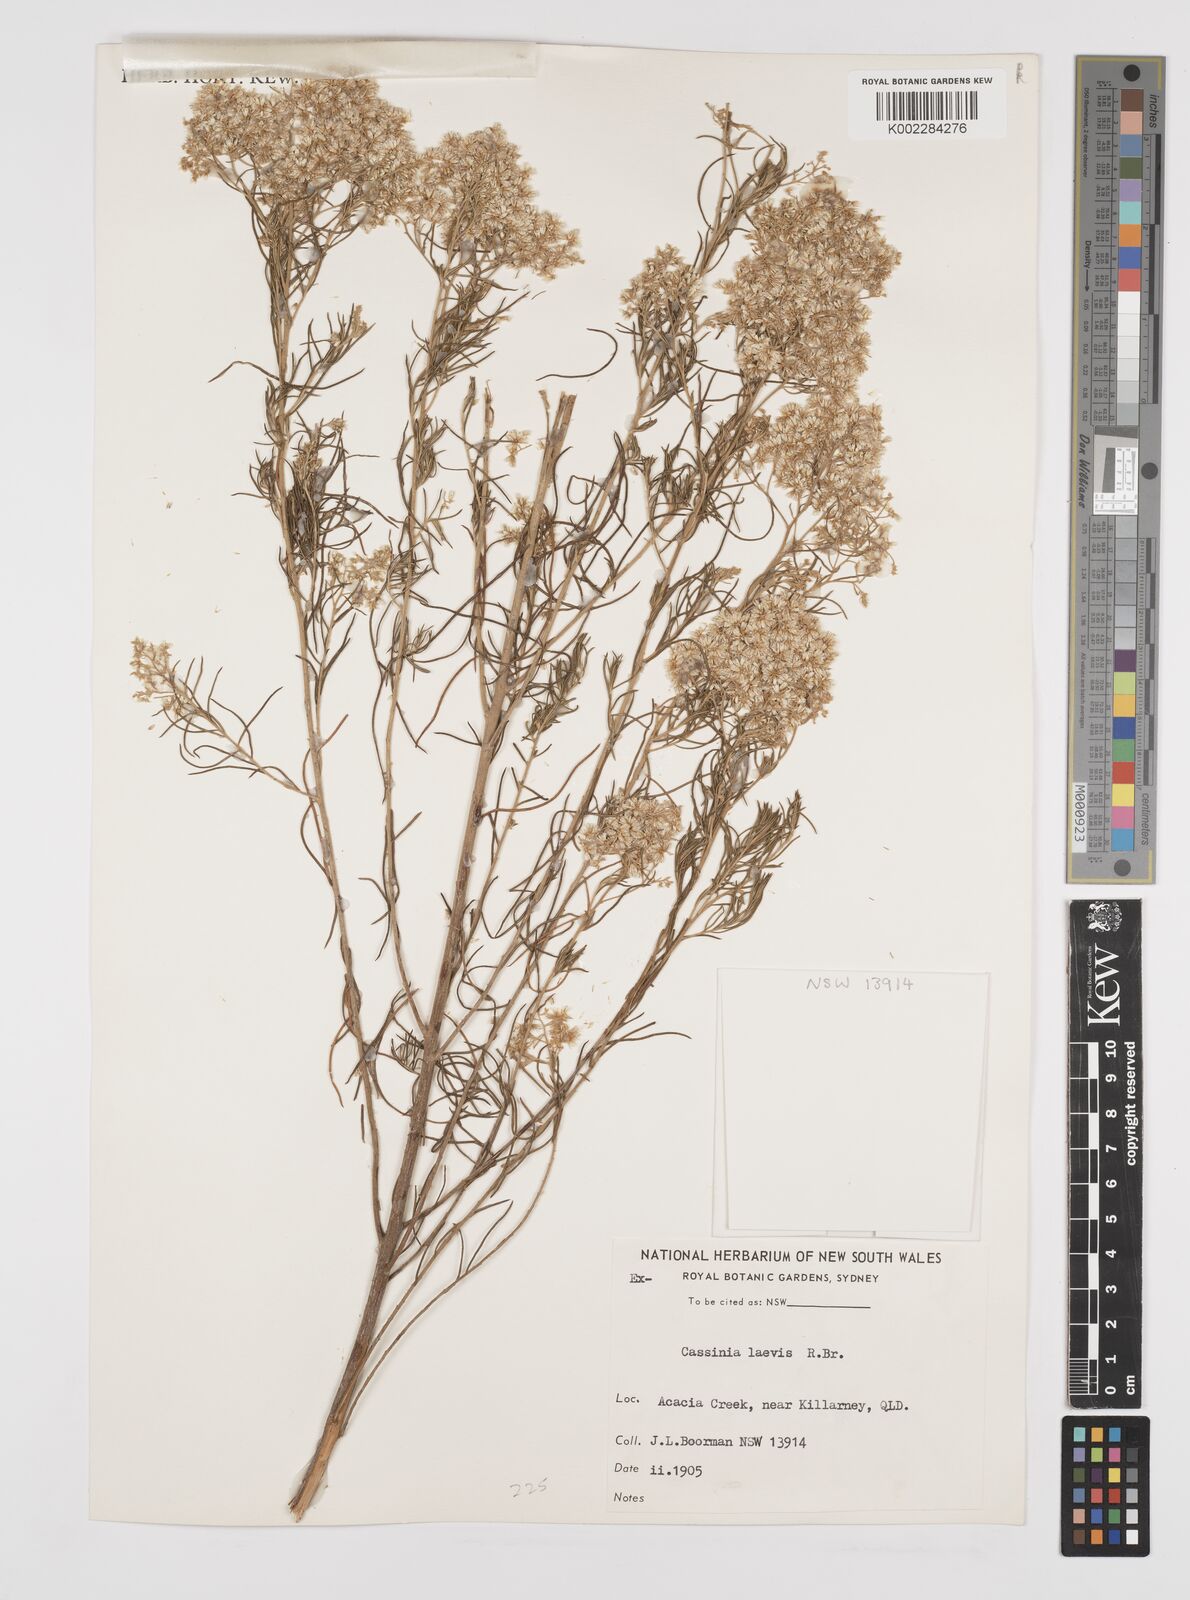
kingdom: Plantae
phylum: Tracheophyta
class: Magnoliopsida
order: Asterales
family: Asteraceae
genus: Cassinia
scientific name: Cassinia laevis
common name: Coughbush
